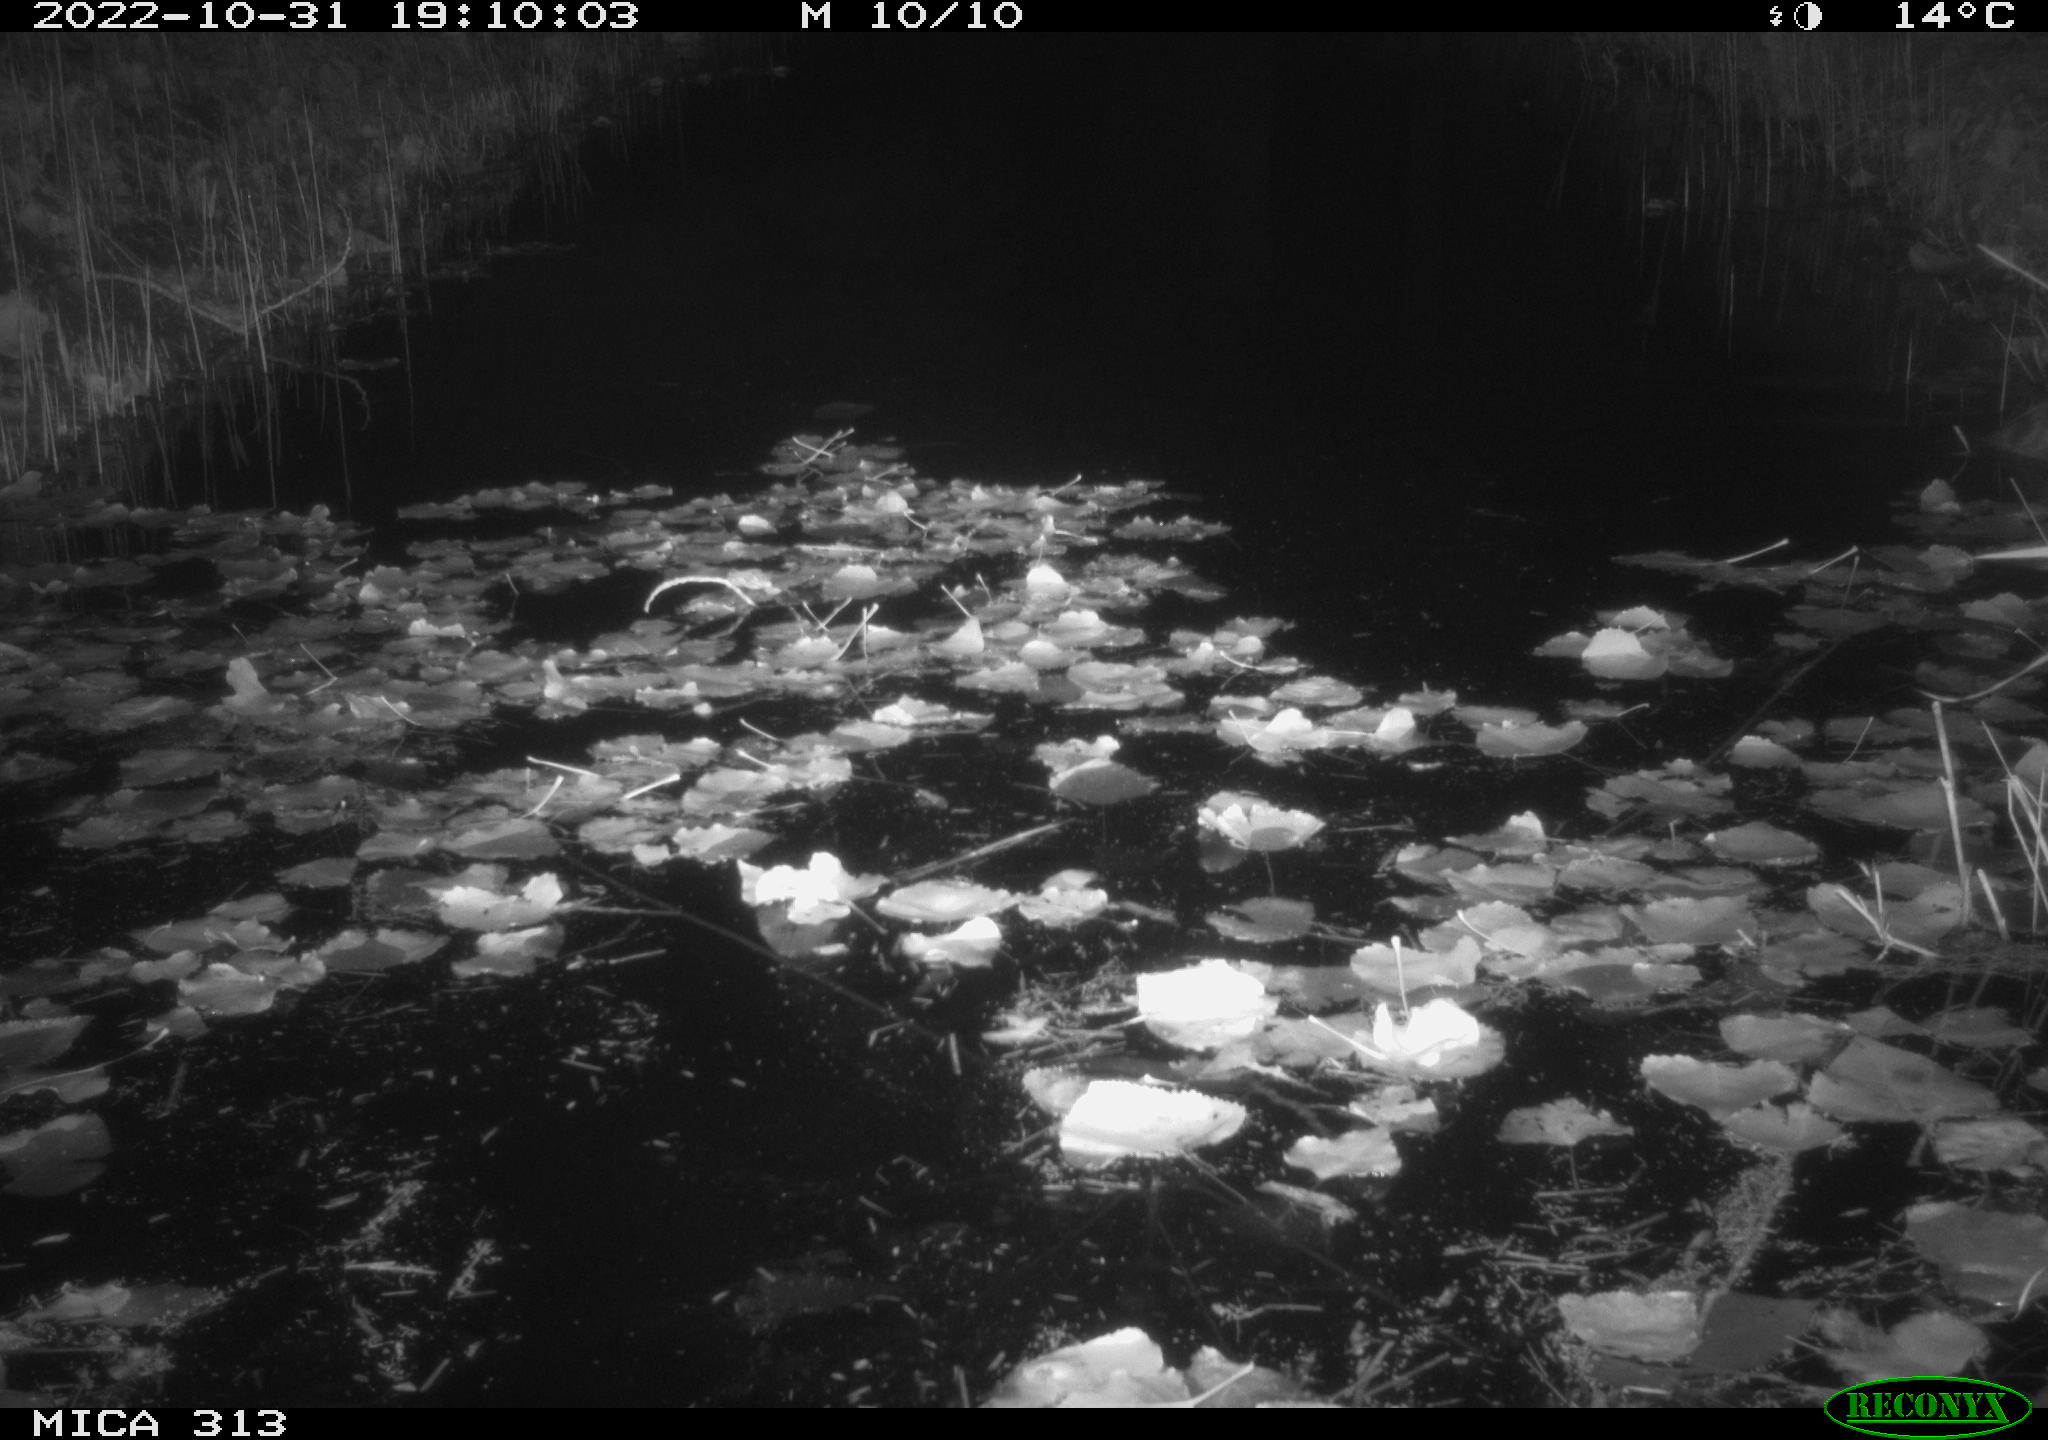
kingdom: Animalia
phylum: Chordata
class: Mammalia
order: Rodentia
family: Muridae
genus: Rattus
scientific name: Rattus norvegicus
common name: Brown rat
